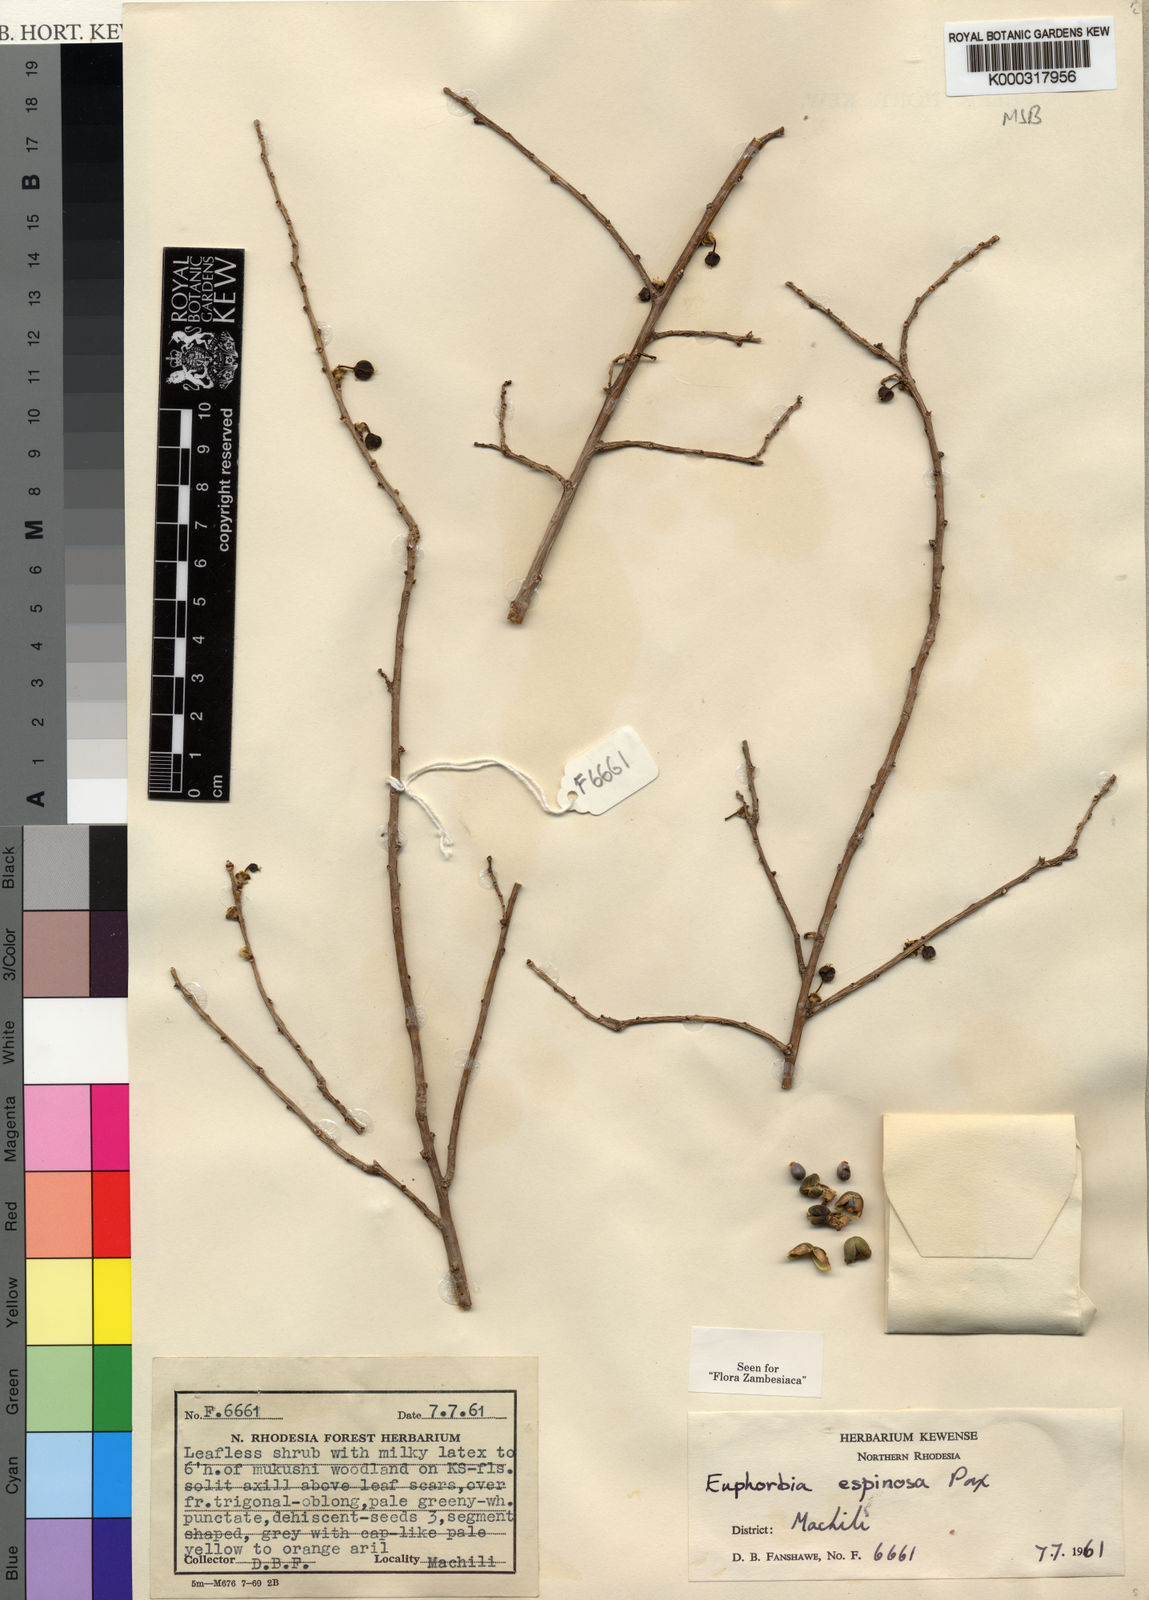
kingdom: Plantae
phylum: Tracheophyta
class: Magnoliopsida
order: Malpighiales
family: Euphorbiaceae
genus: Euphorbia
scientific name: Euphorbia espinosa
